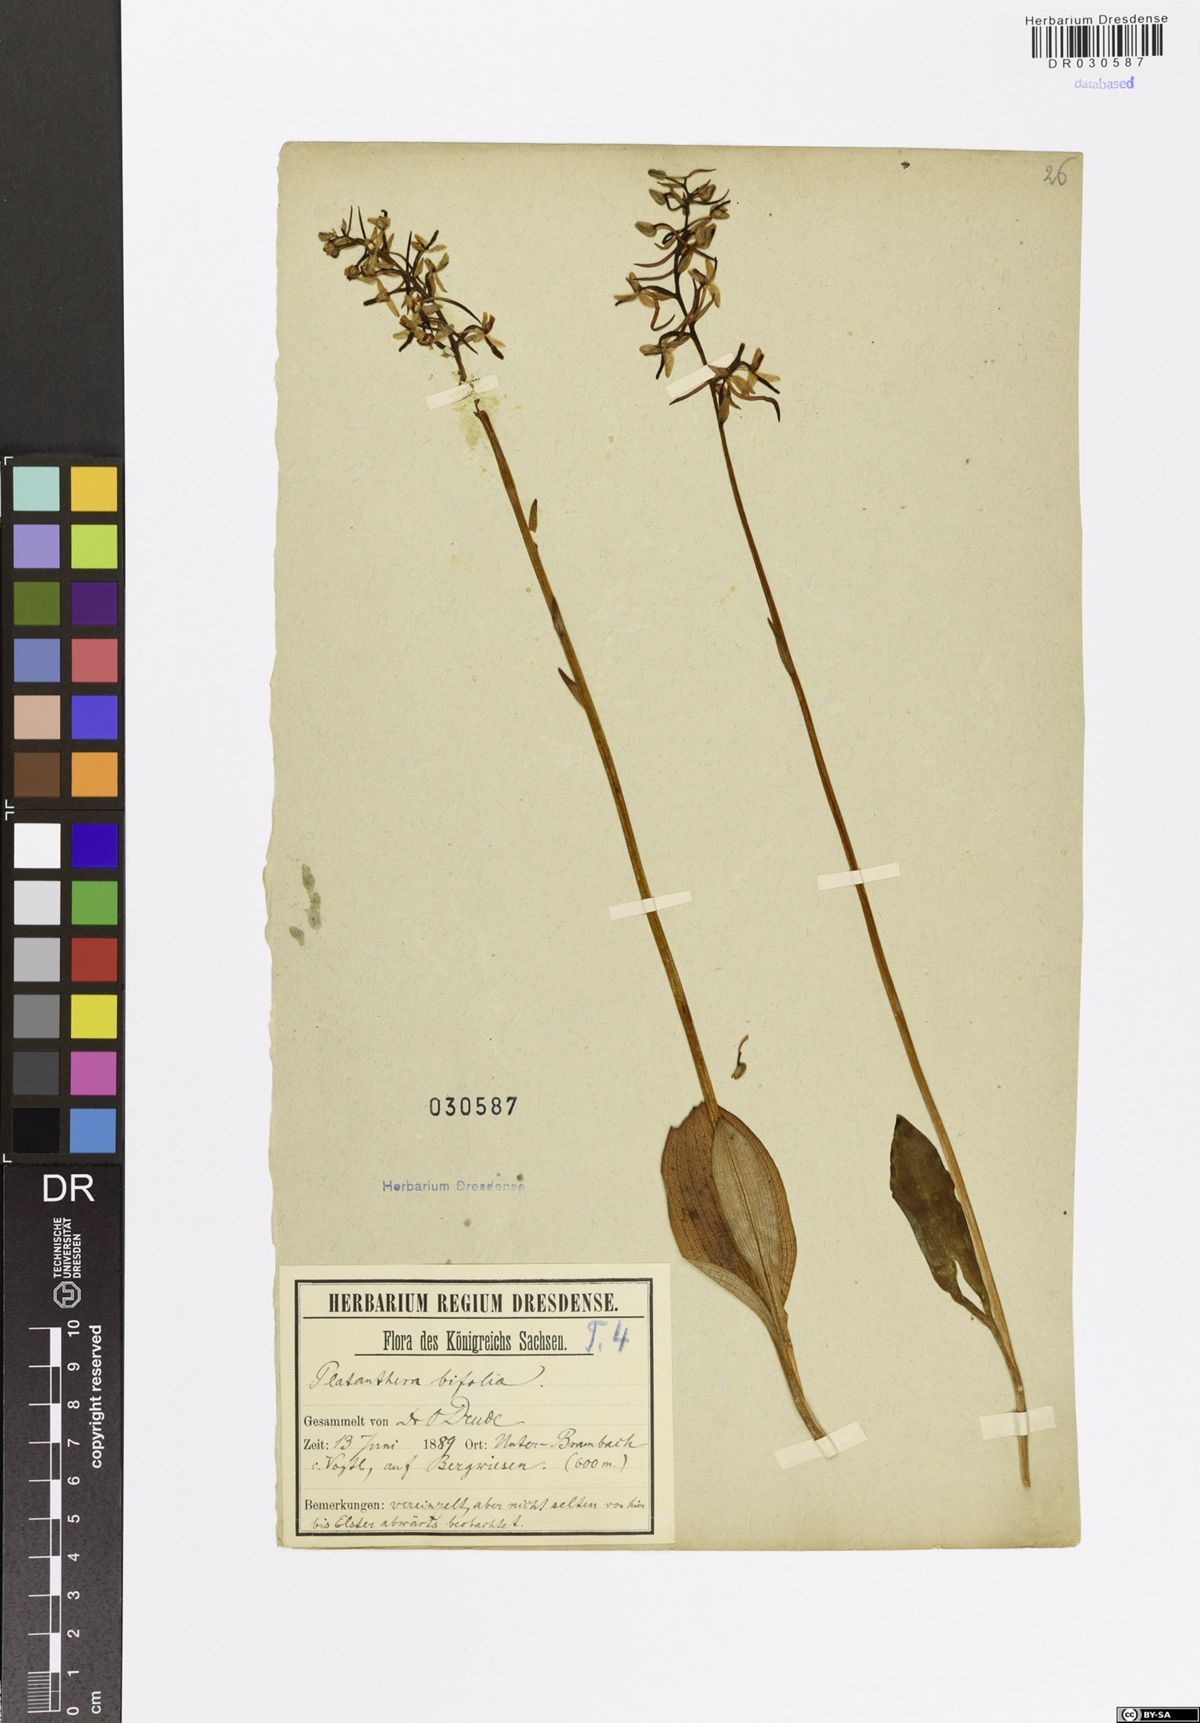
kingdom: Plantae
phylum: Tracheophyta
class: Liliopsida
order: Asparagales
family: Orchidaceae
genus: Platanthera
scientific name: Platanthera bifolia
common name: Lesser butterfly-orchid
